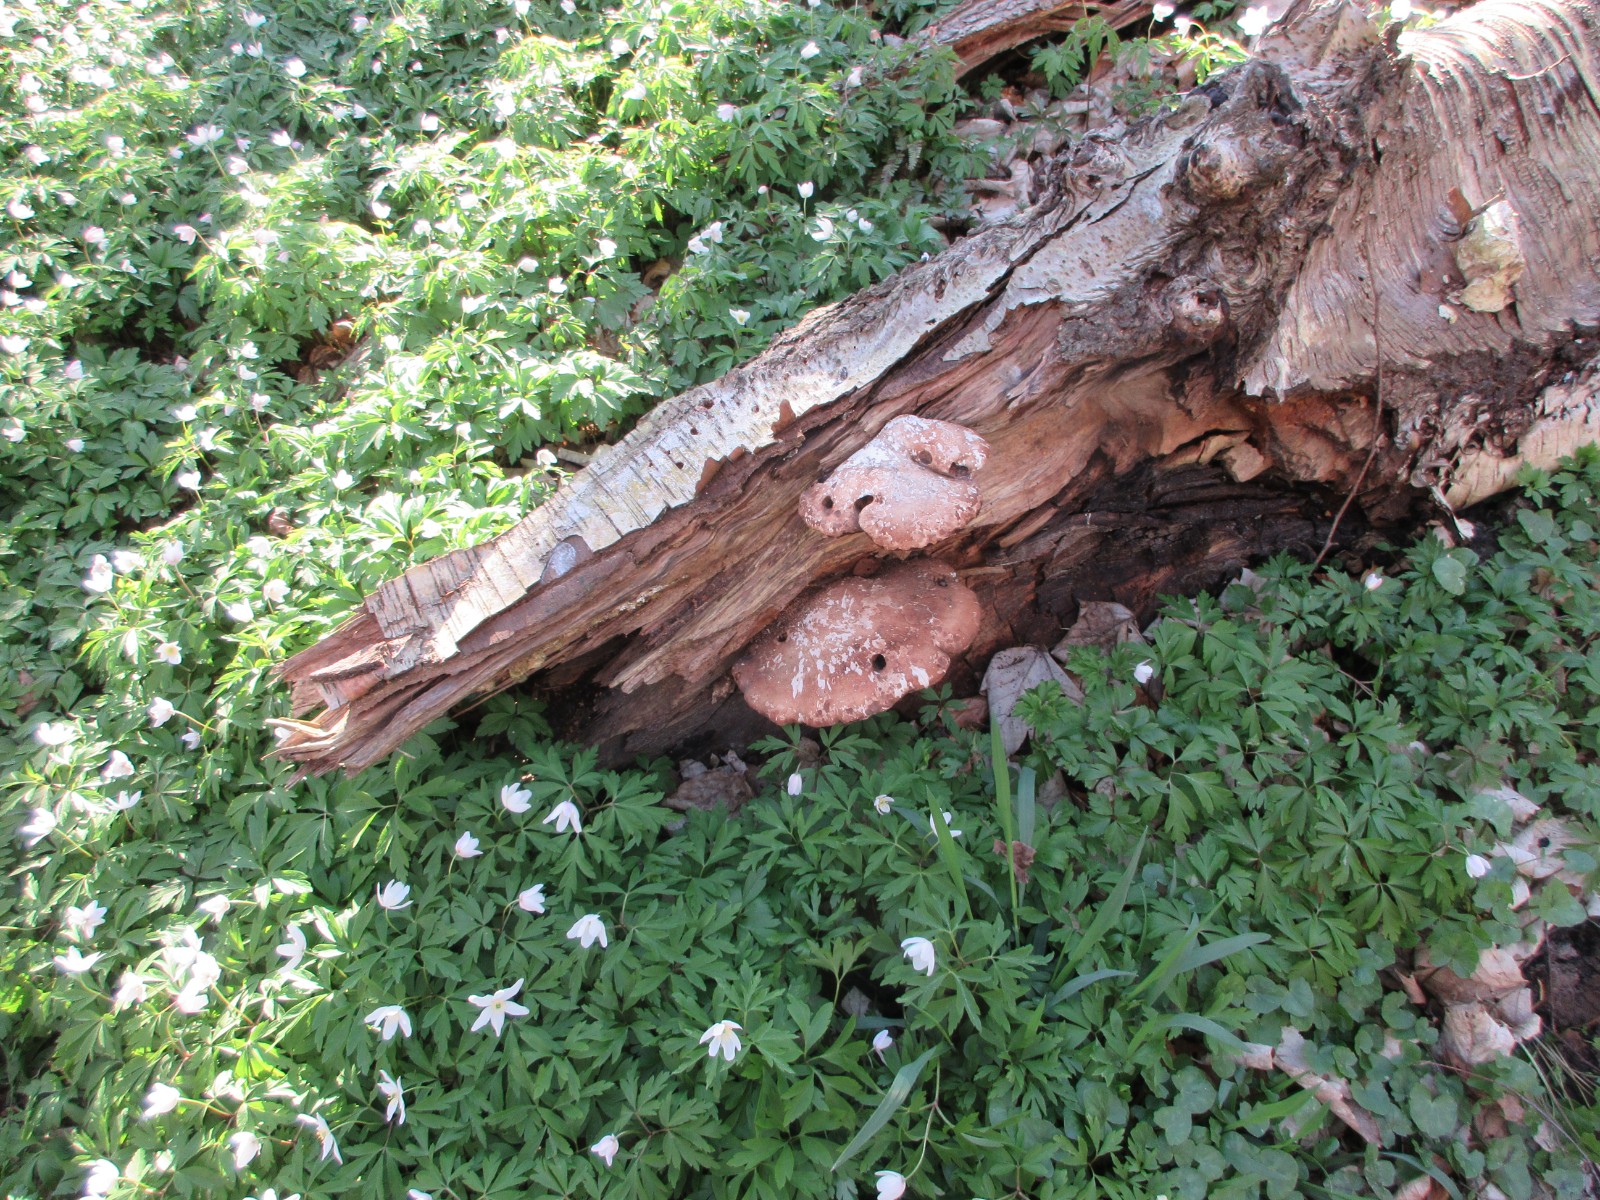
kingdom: Fungi
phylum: Basidiomycota
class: Agaricomycetes
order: Polyporales
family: Fomitopsidaceae
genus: Fomitopsis
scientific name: Fomitopsis betulina
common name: birkeporesvamp
